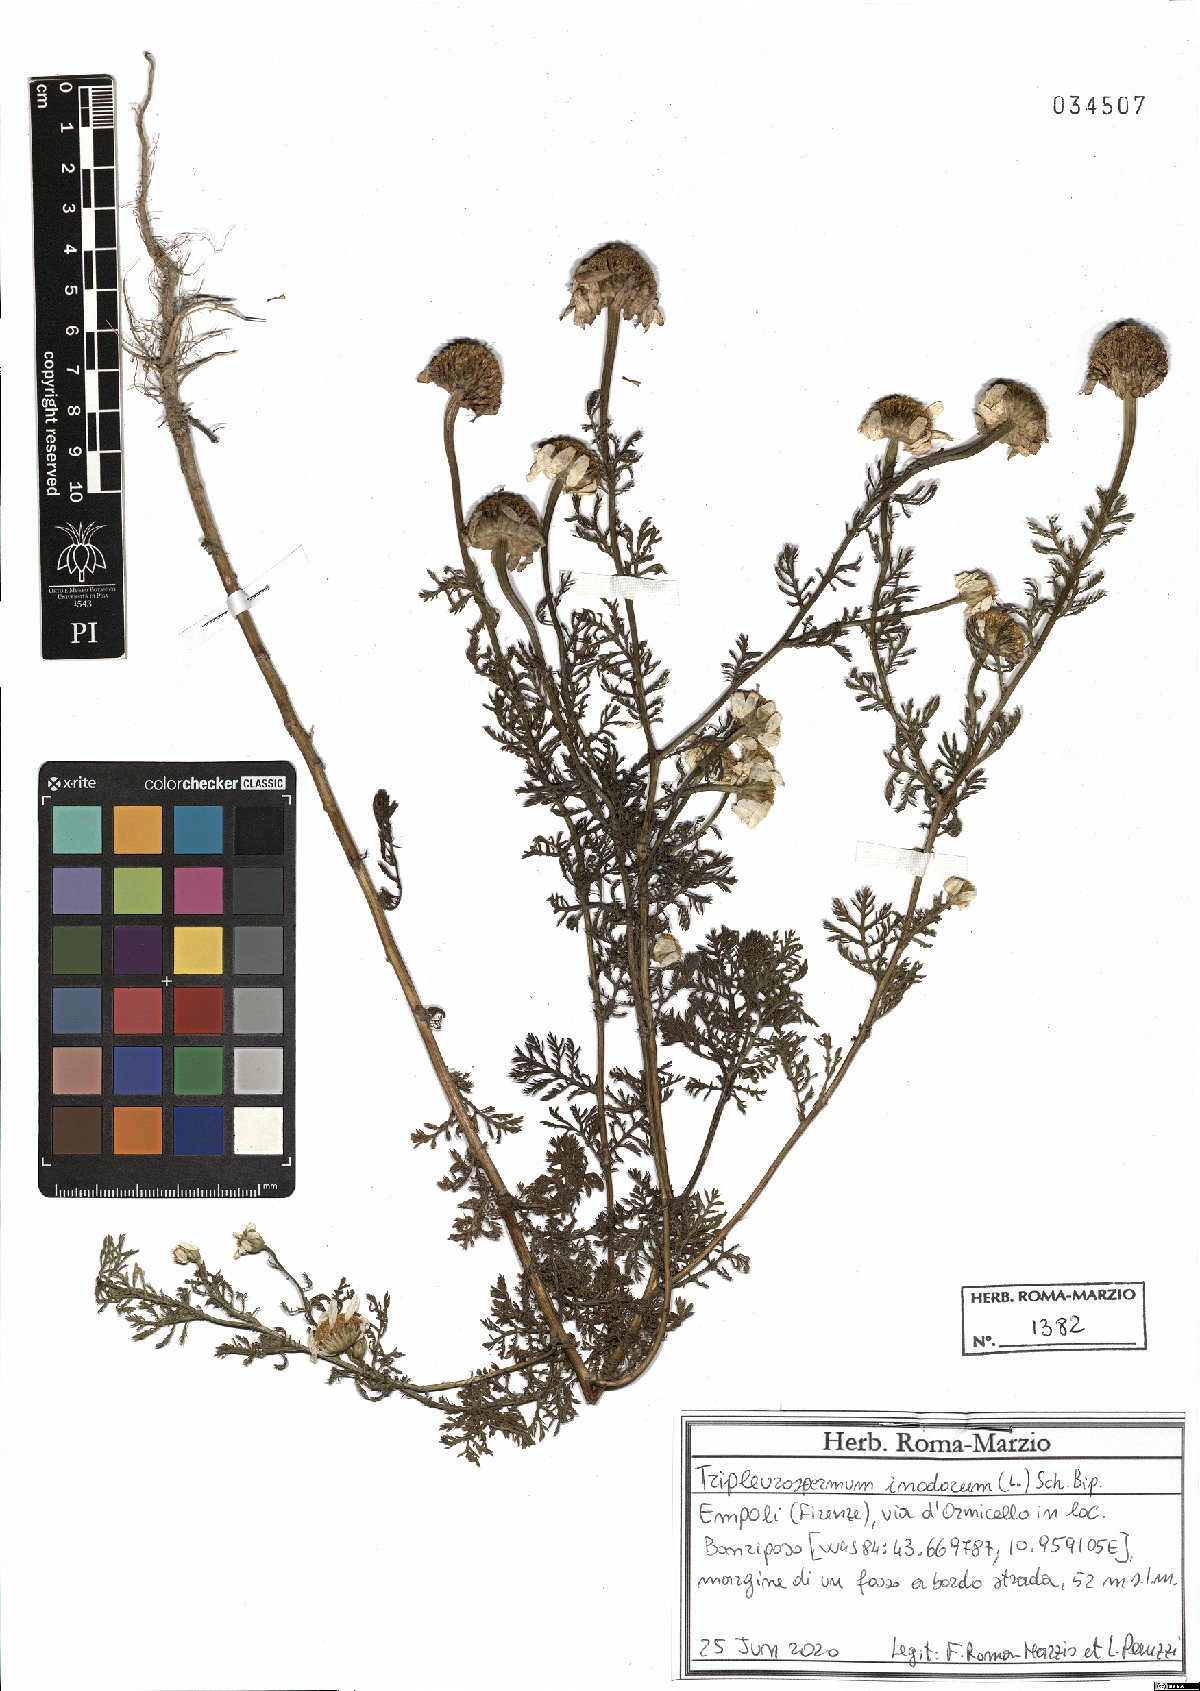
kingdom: Plantae
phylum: Tracheophyta
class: Magnoliopsida
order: Asterales
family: Asteraceae
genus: Tripleurospermum
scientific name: Tripleurospermum inodorum
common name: Scentless mayweed
